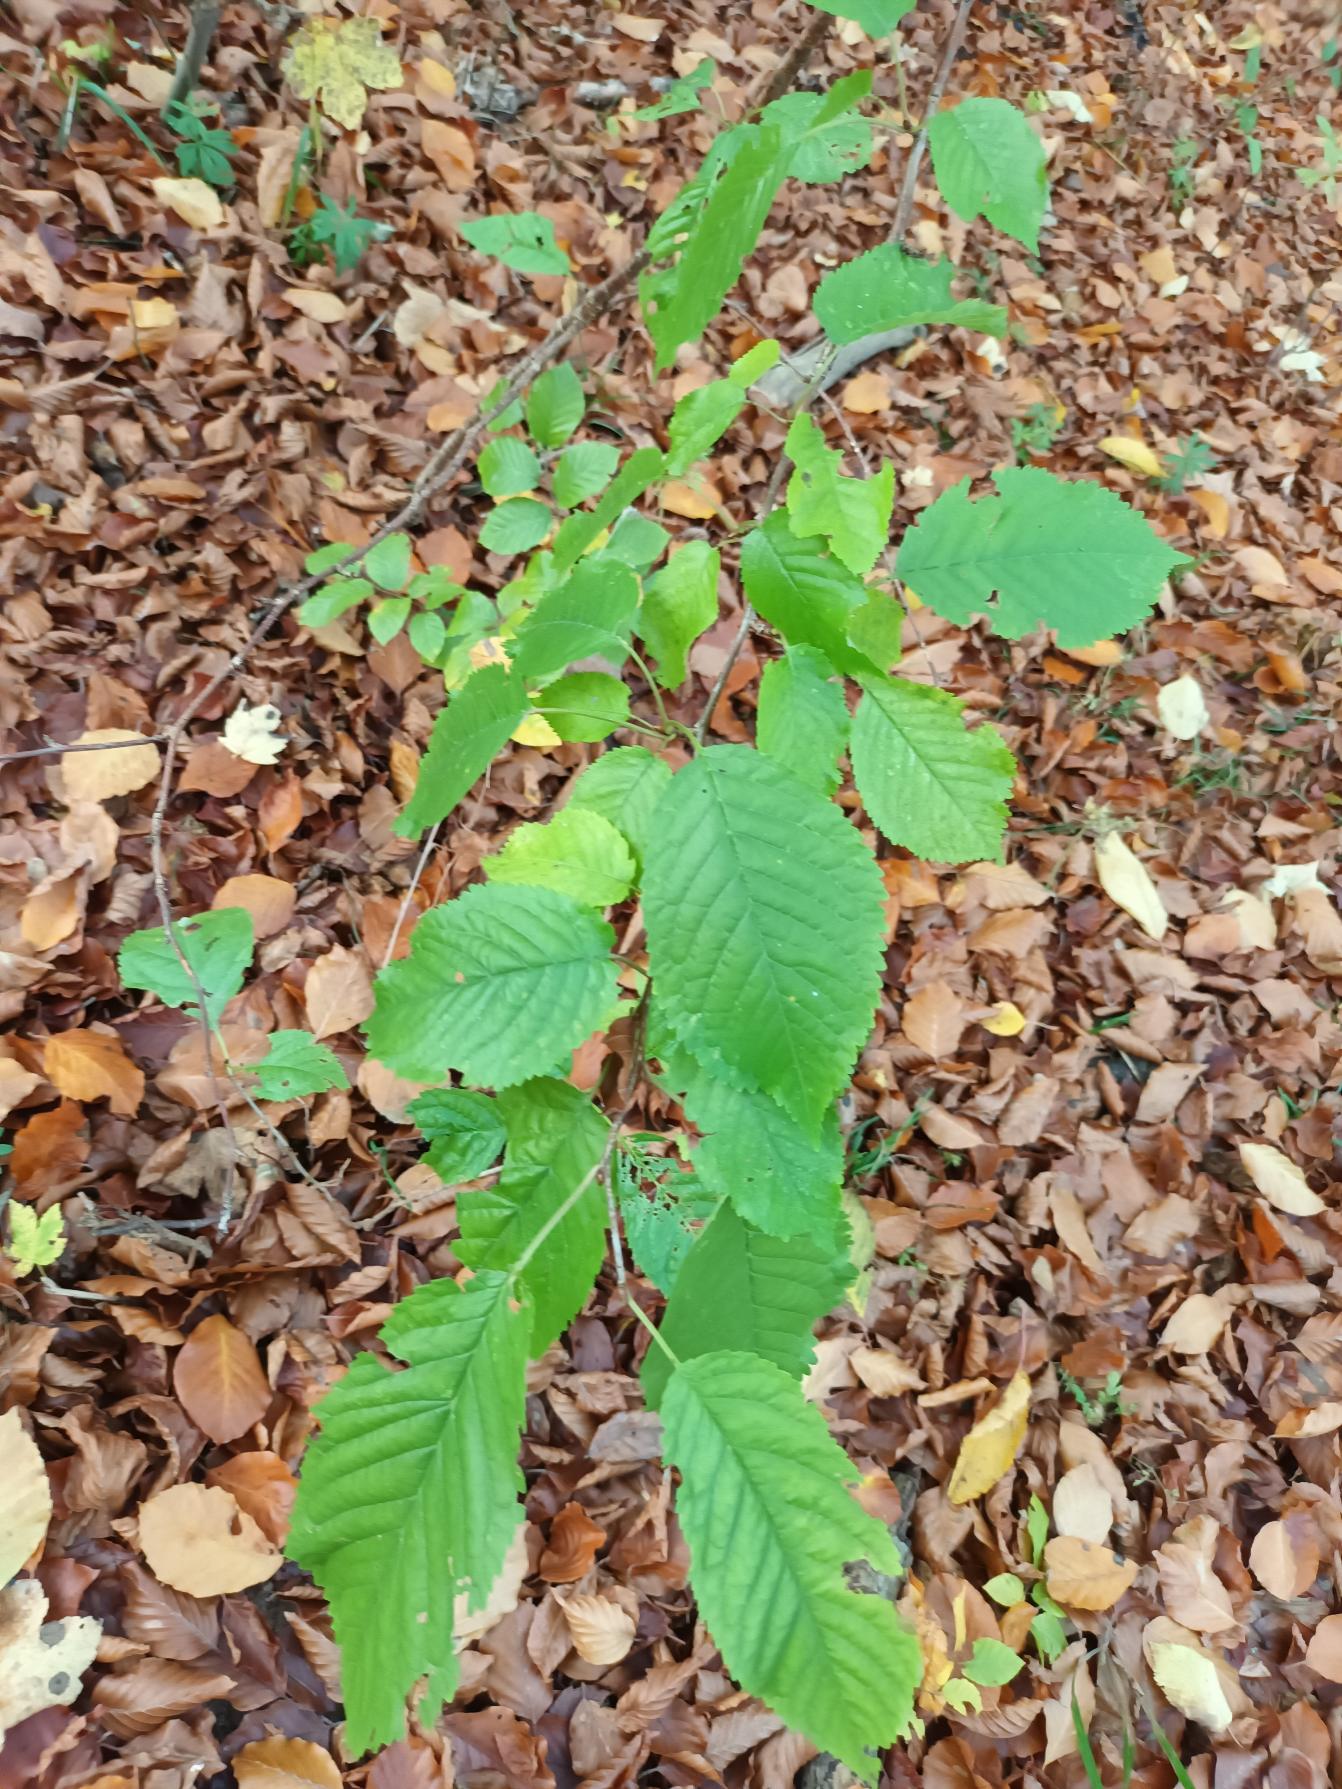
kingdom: Plantae
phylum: Tracheophyta
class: Magnoliopsida
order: Rosales
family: Rosaceae
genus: Prunus
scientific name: Prunus avium
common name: Fugle-kirsebær
